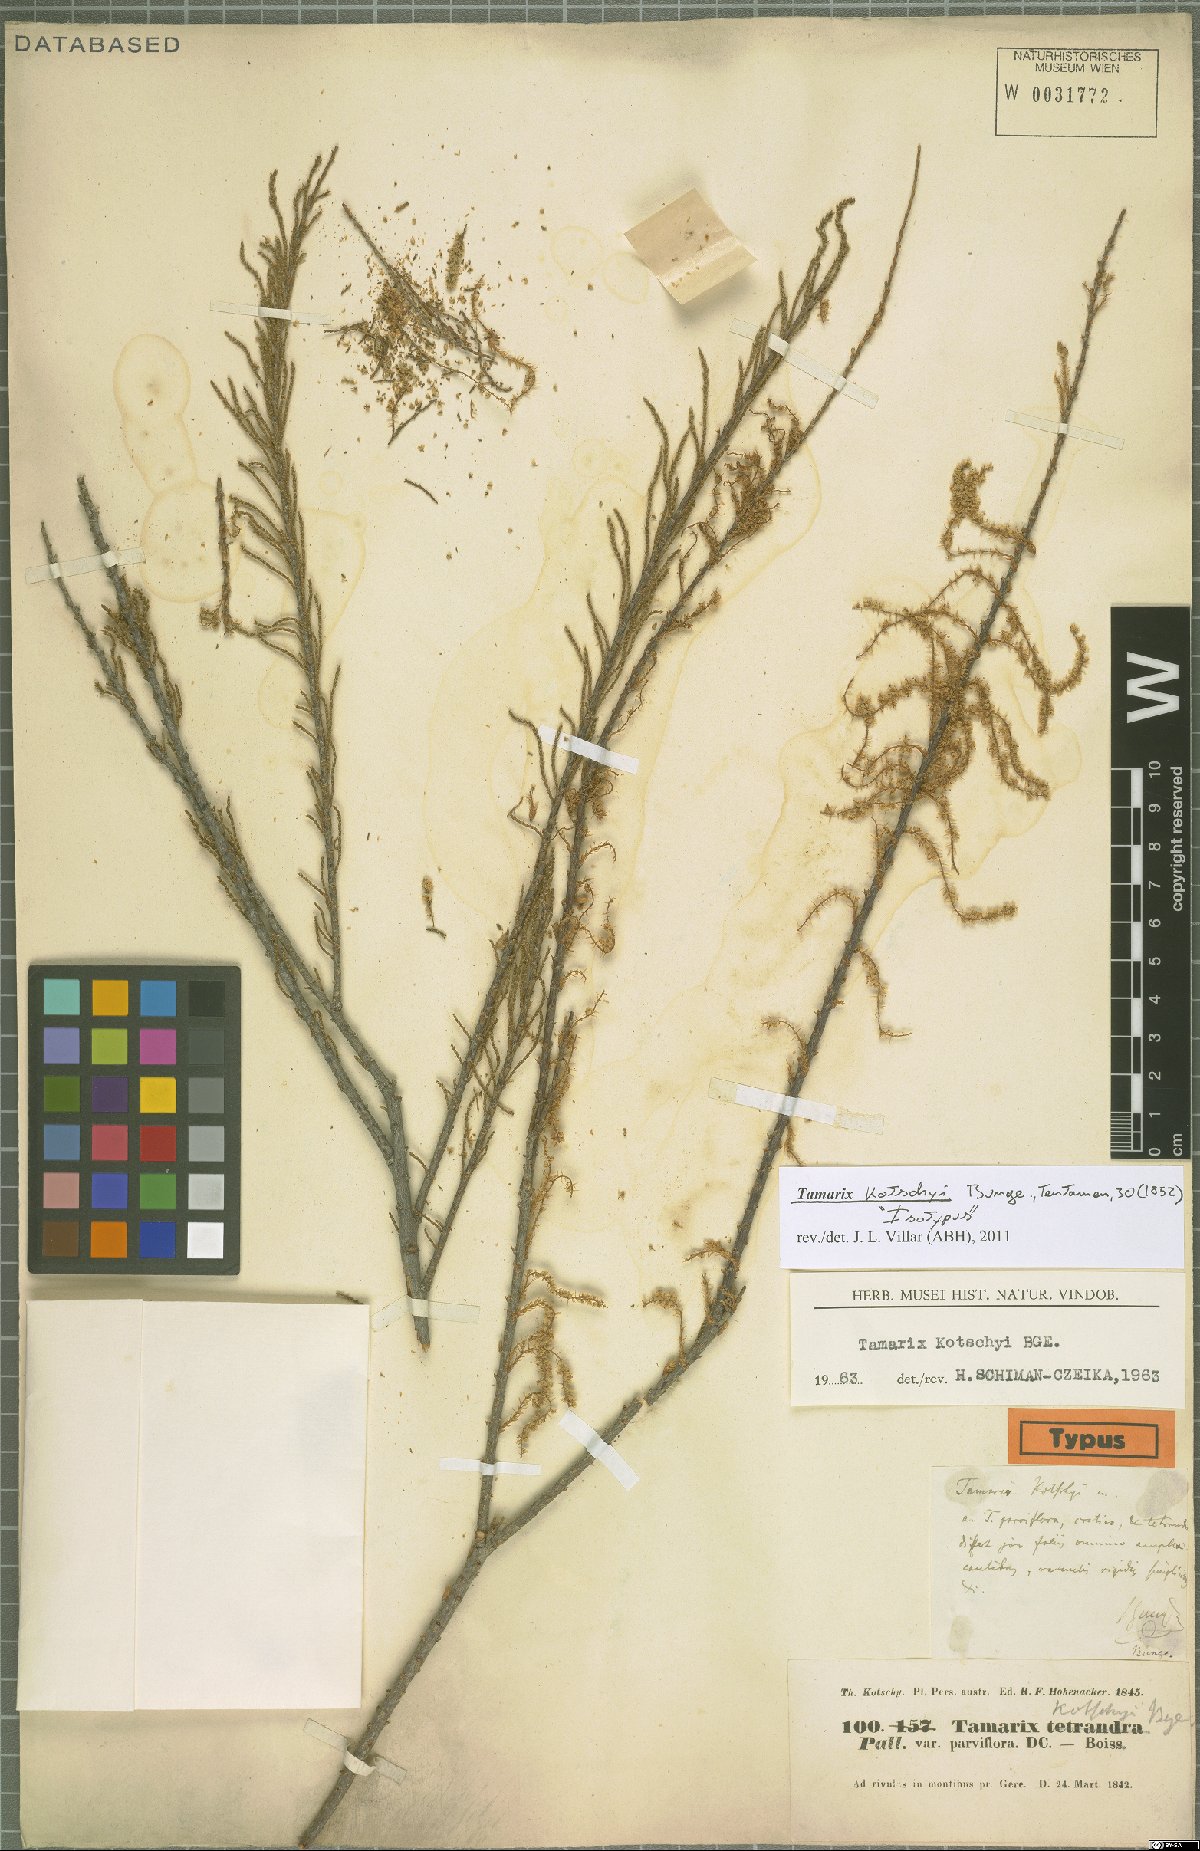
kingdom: Plantae
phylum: Tracheophyta
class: Magnoliopsida
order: Caryophyllales
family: Tamaricaceae
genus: Tamarix
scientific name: Tamarix kotschyi
